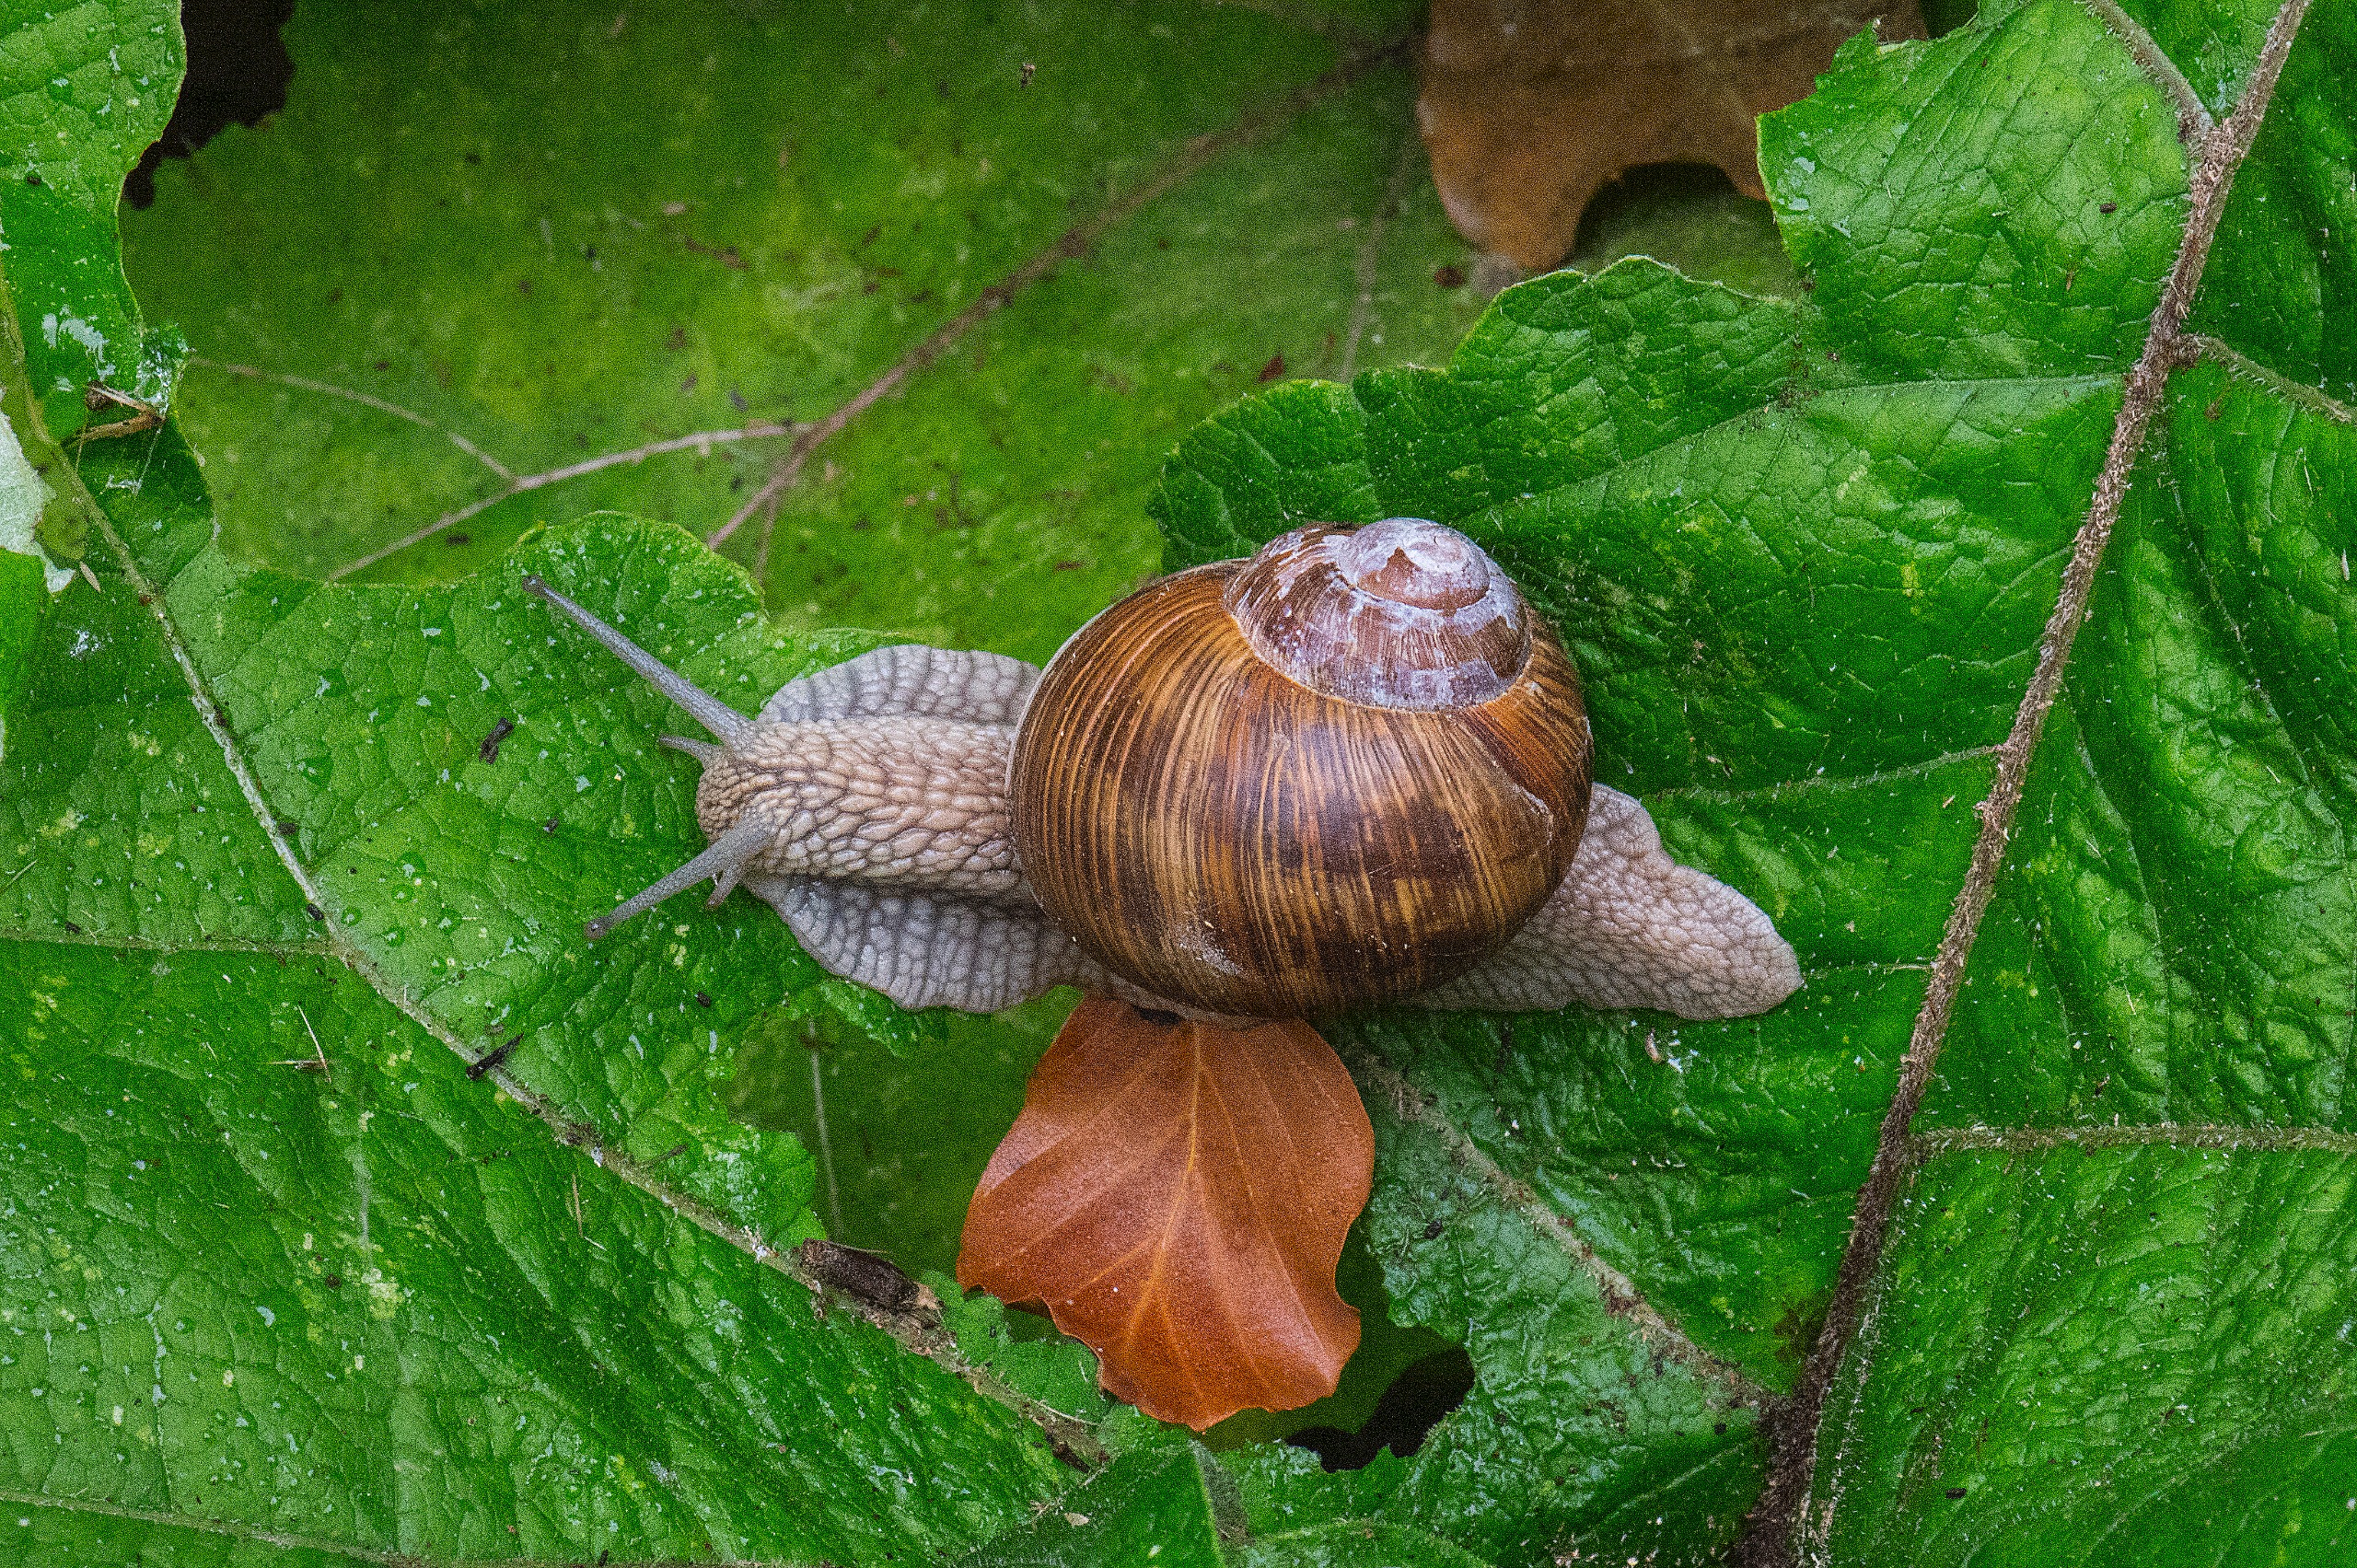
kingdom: Animalia
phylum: Mollusca
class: Gastropoda
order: Stylommatophora
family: Helicidae
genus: Helix
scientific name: Helix pomatia
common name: Vinbjergsnegl
